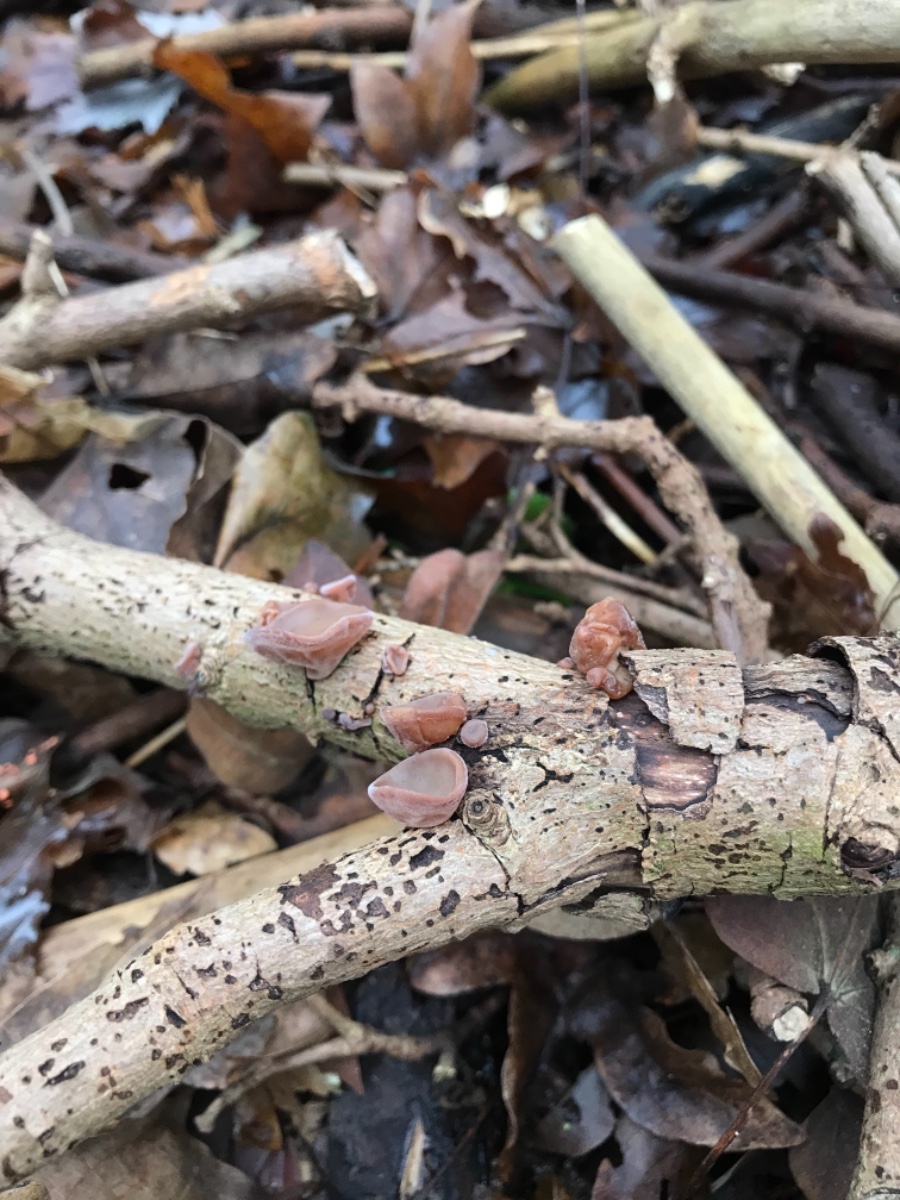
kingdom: Fungi
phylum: Basidiomycota
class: Agaricomycetes
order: Auriculariales
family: Auriculariaceae
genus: Auricularia
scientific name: Auricularia auricula-judae
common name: almindelig judasøre
